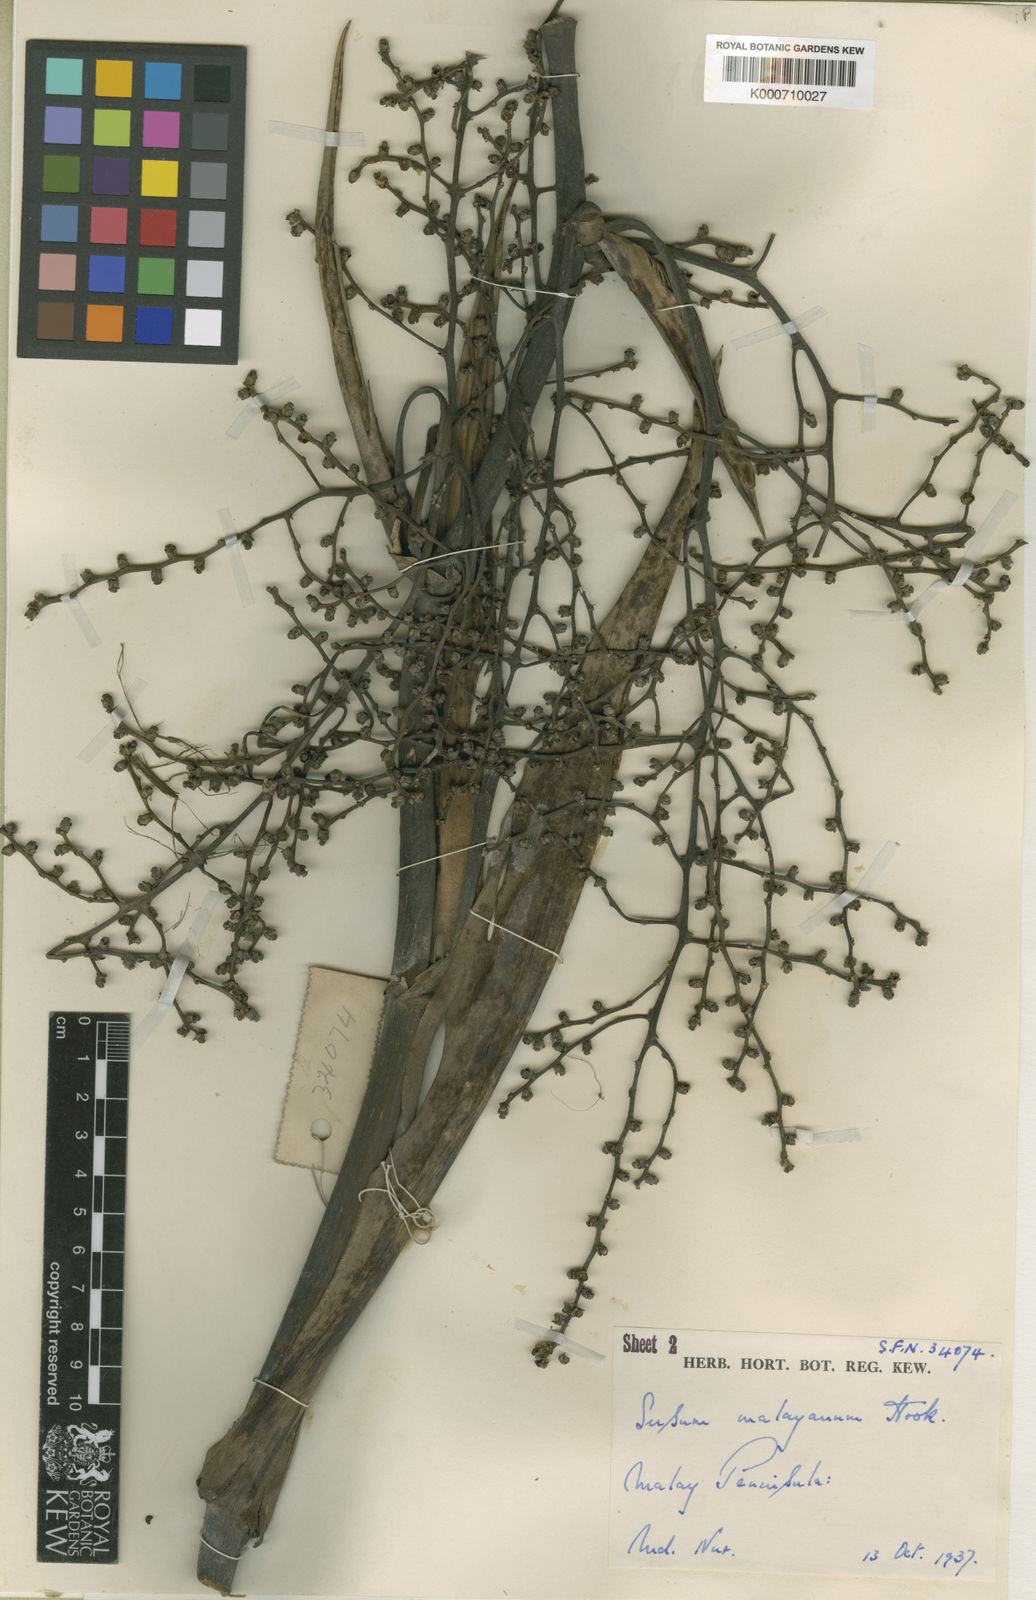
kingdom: Plantae
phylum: Tracheophyta
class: Liliopsida
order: Commelinales
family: Hanguanaceae
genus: Hanguana
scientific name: Hanguana malayana
